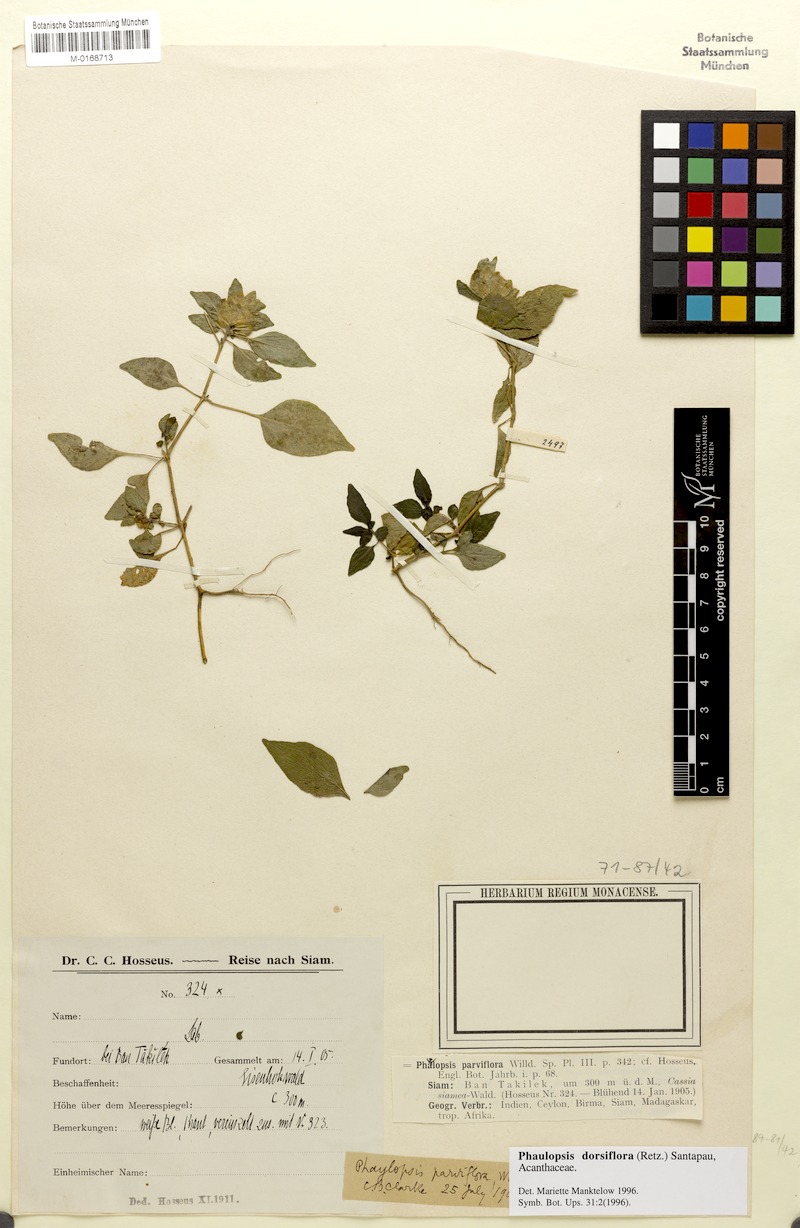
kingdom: Plantae
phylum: Tracheophyta
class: Magnoliopsida
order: Lamiales
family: Acanthaceae
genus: Phaulopsis
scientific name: Phaulopsis dorsiflora
